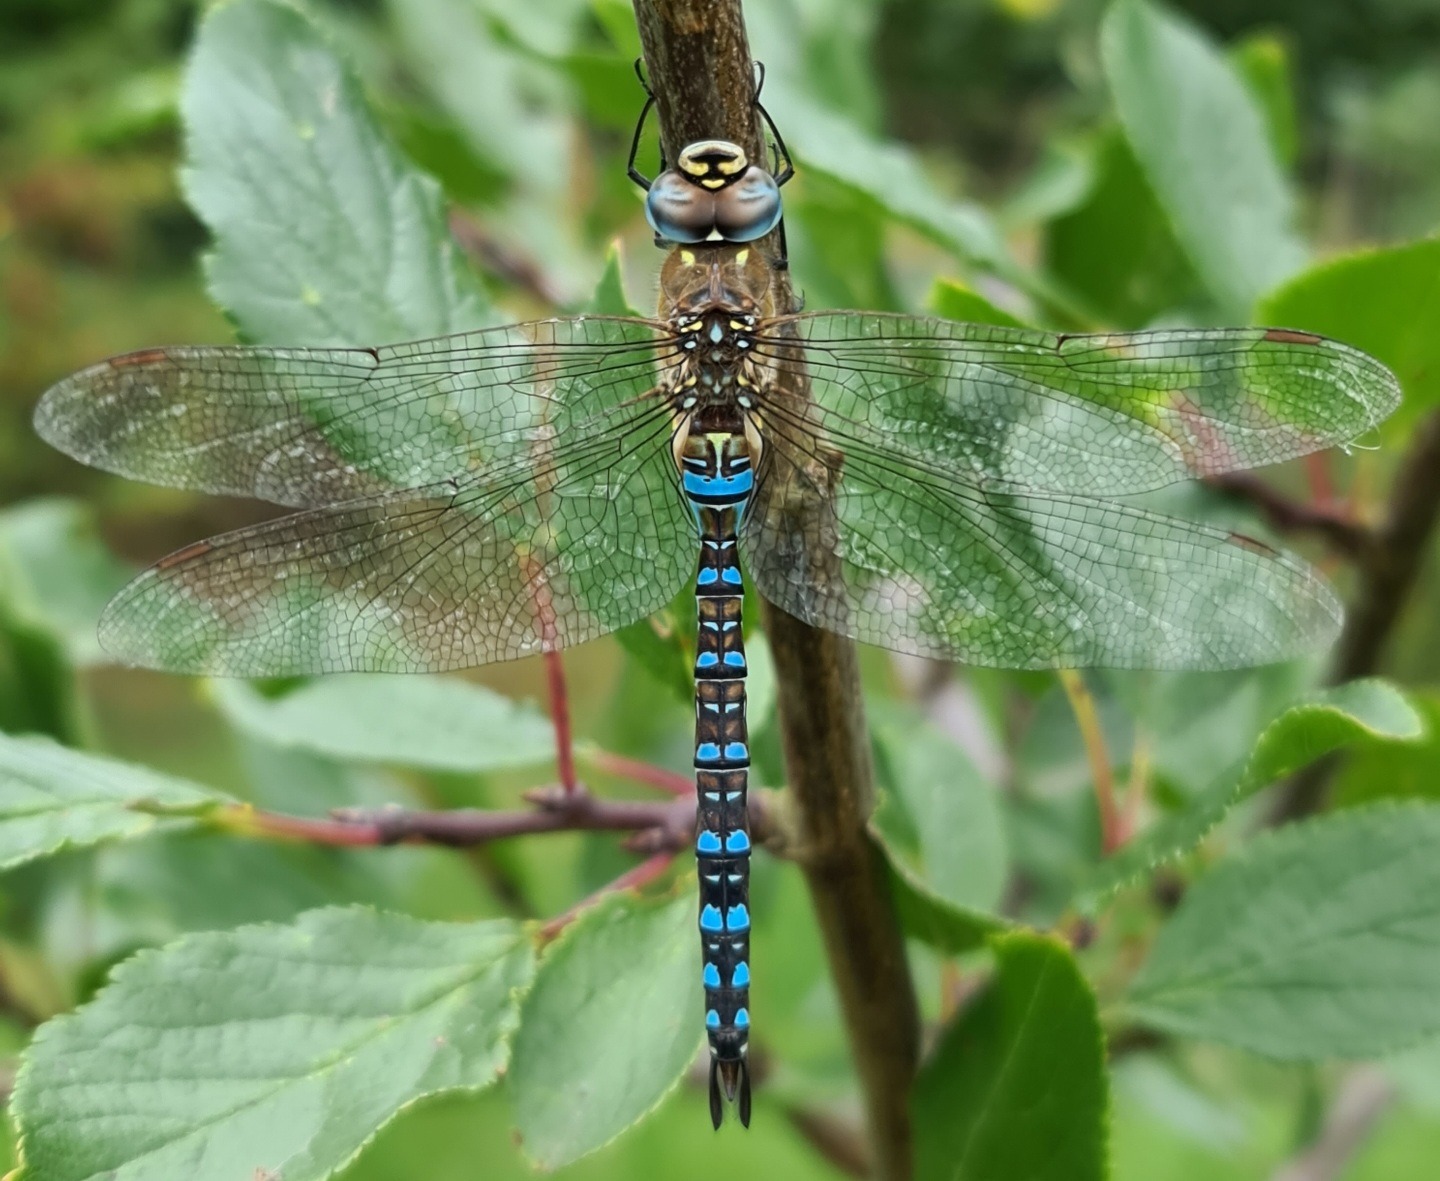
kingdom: Animalia
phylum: Arthropoda
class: Insecta
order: Odonata
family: Aeshnidae
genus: Aeshna
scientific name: Aeshna mixta
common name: Efterårs-mosaikguldsmed
